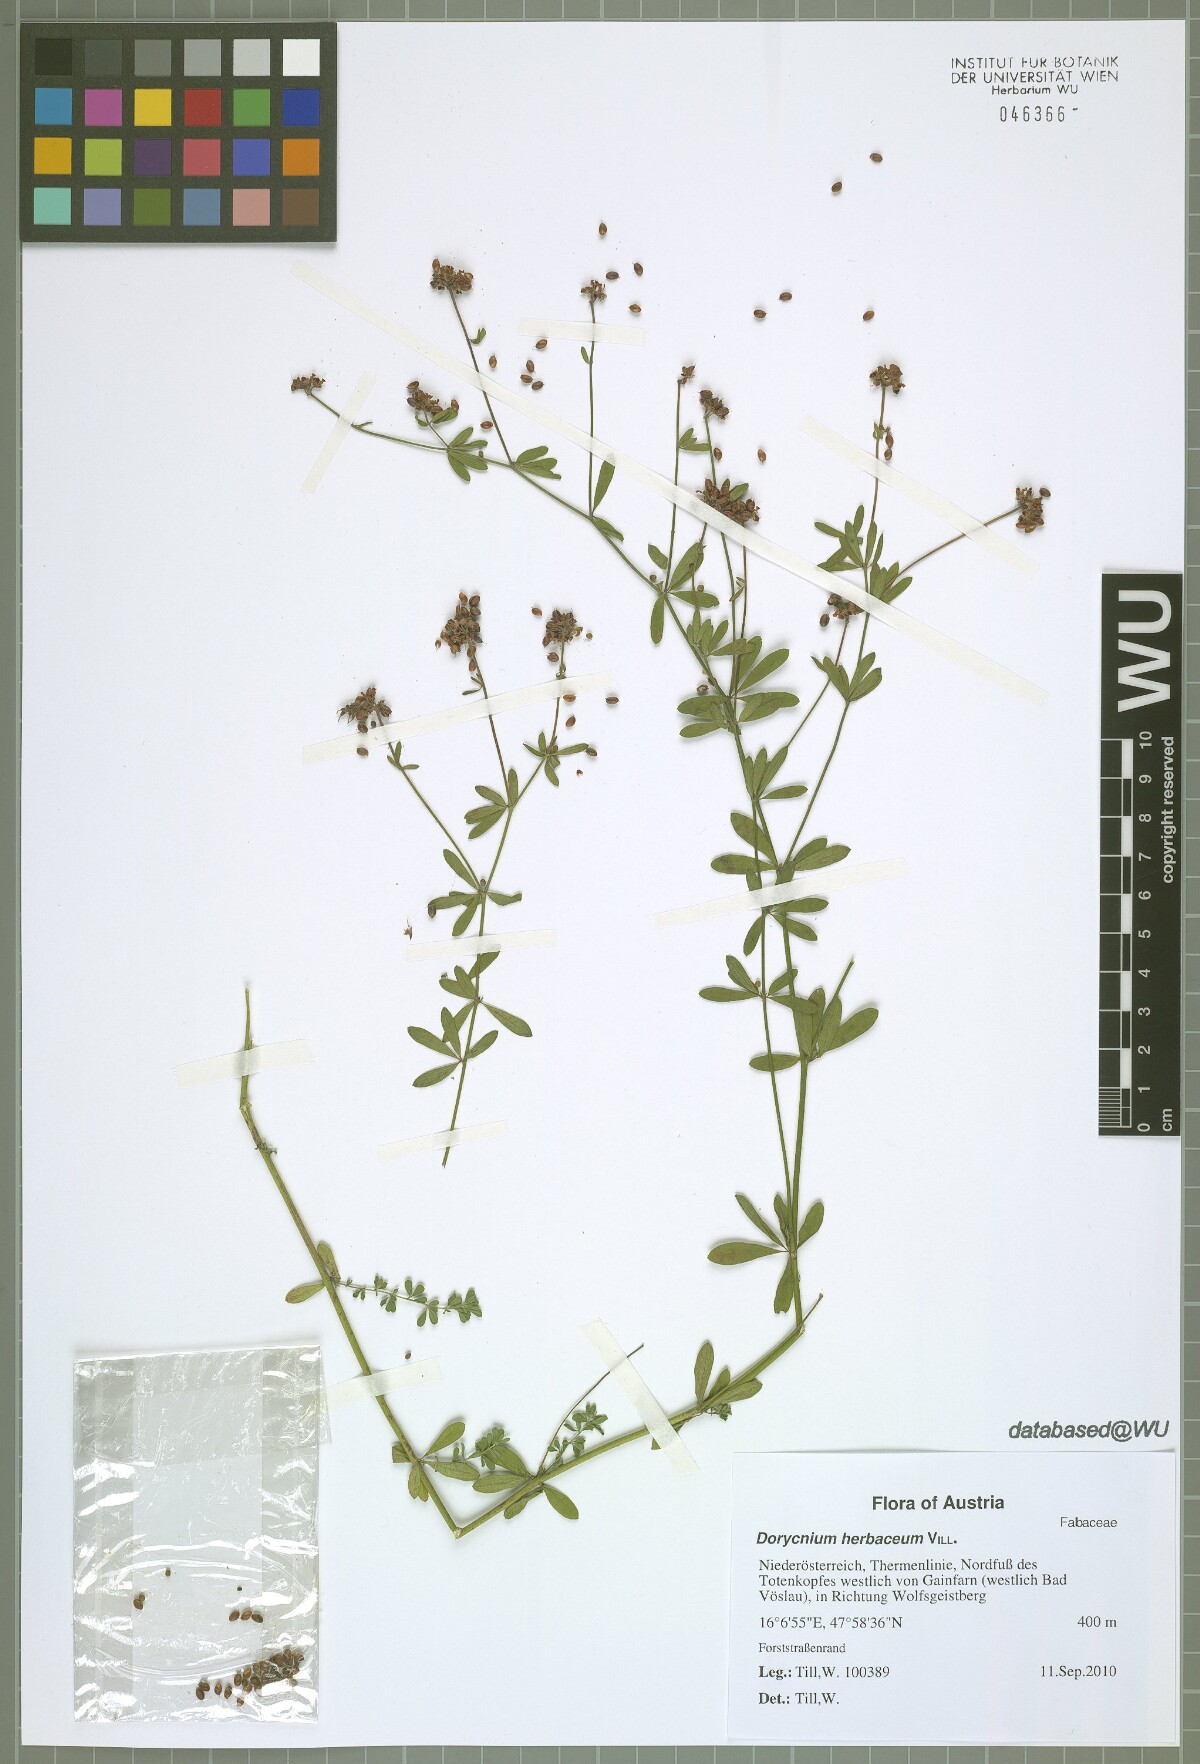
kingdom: Plantae
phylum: Tracheophyta
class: Magnoliopsida
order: Fabales
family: Fabaceae
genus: Lotus
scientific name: Lotus herbaceus
